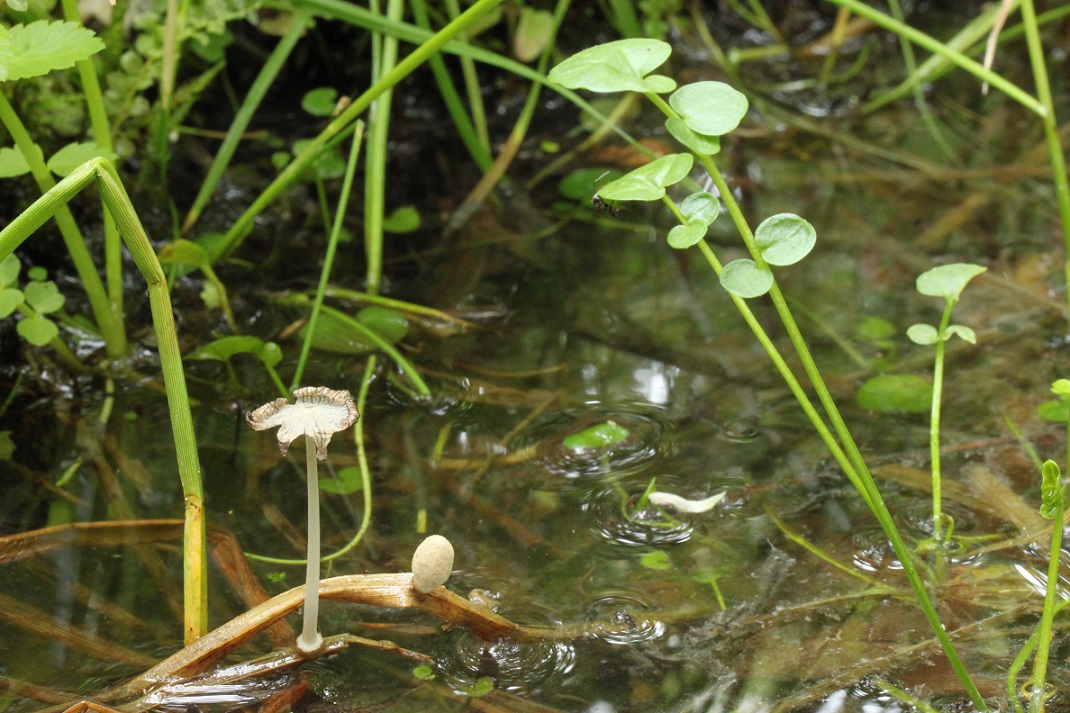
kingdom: Fungi
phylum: Basidiomycota
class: Agaricomycetes
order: Agaricales
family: Psathyrellaceae
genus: Coprinopsis
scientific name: Coprinopsis kubickae
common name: amfibie-blækhat
